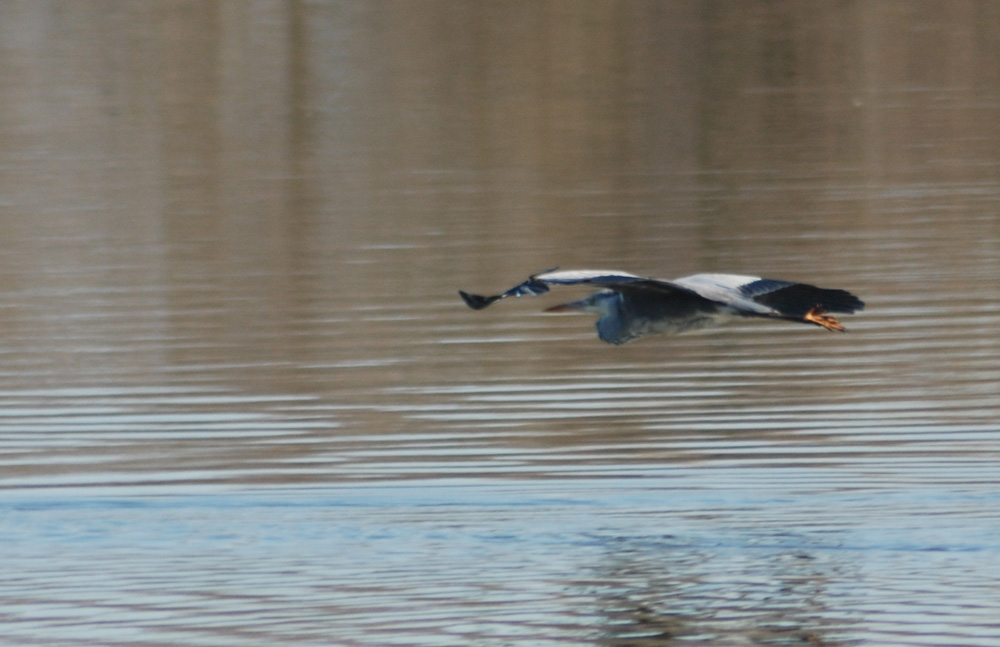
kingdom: Animalia
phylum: Chordata
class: Aves
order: Pelecaniformes
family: Ardeidae
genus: Ardea
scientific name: Ardea cinerea
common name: Grey heron
